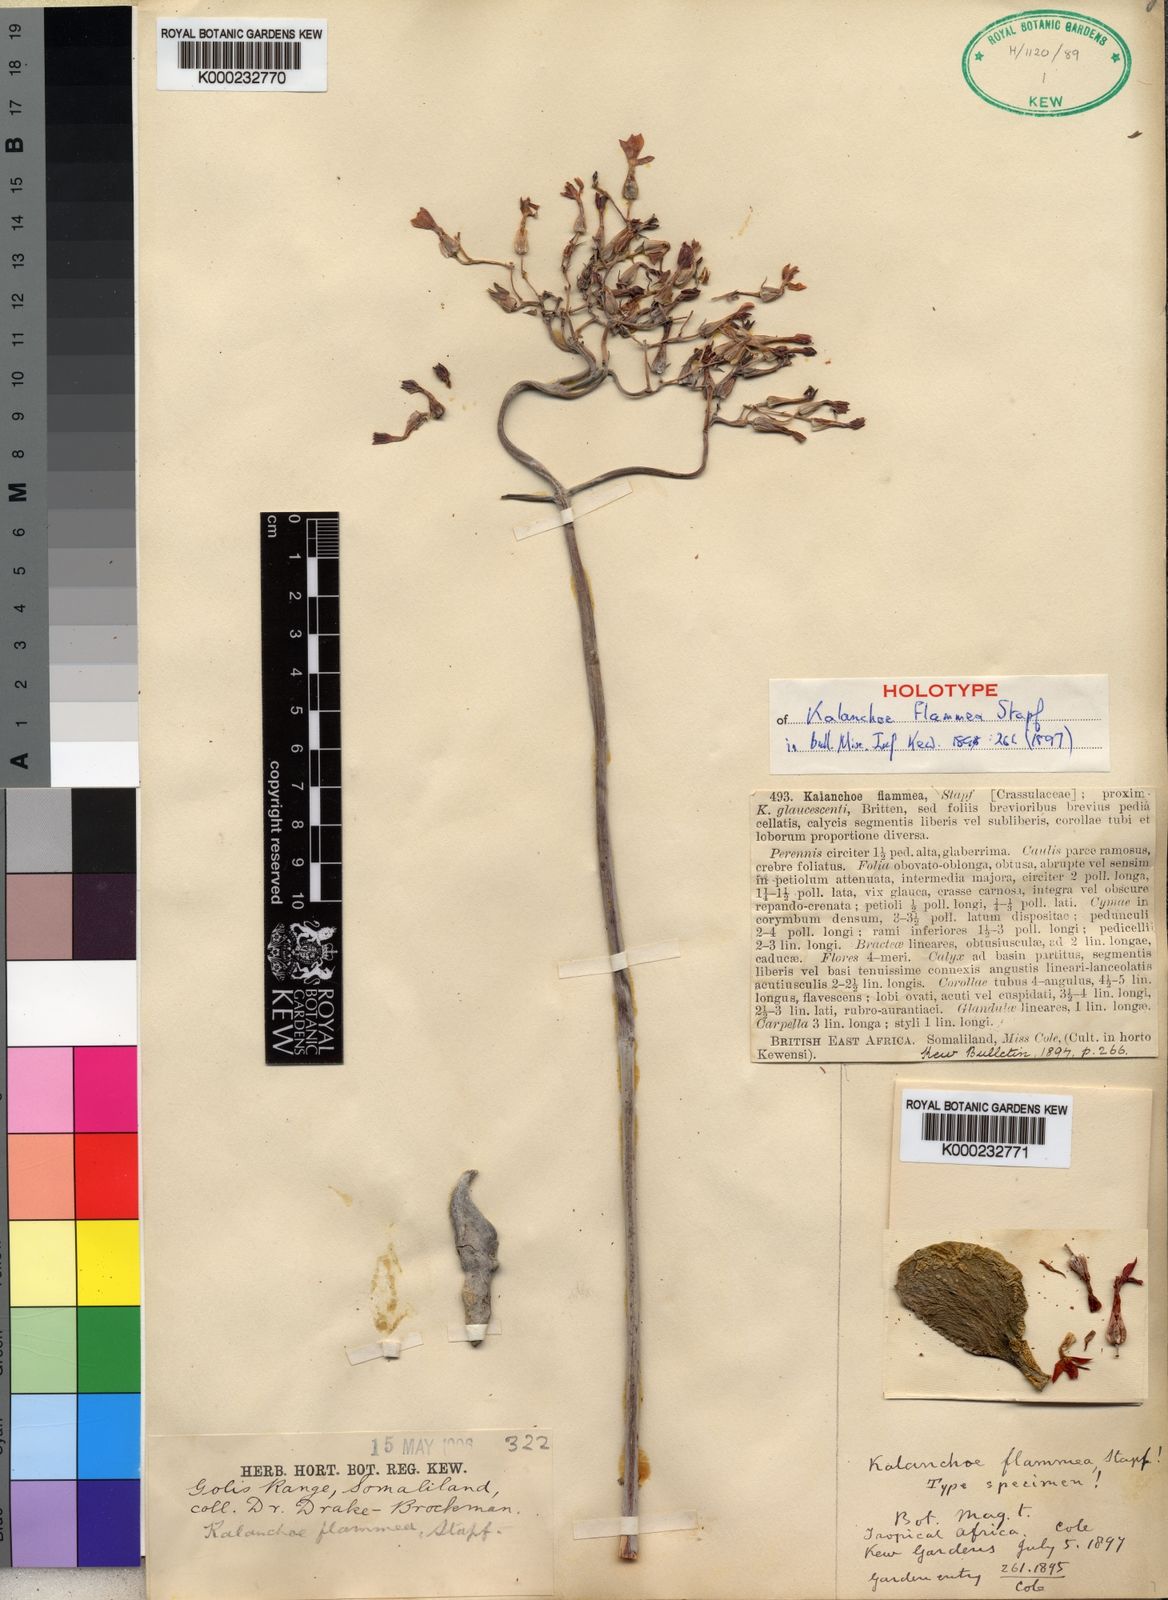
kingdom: Plantae
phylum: Tracheophyta
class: Magnoliopsida
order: Saxifragales
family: Crassulaceae
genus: Kalanchoe
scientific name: Kalanchoe glaucescens
